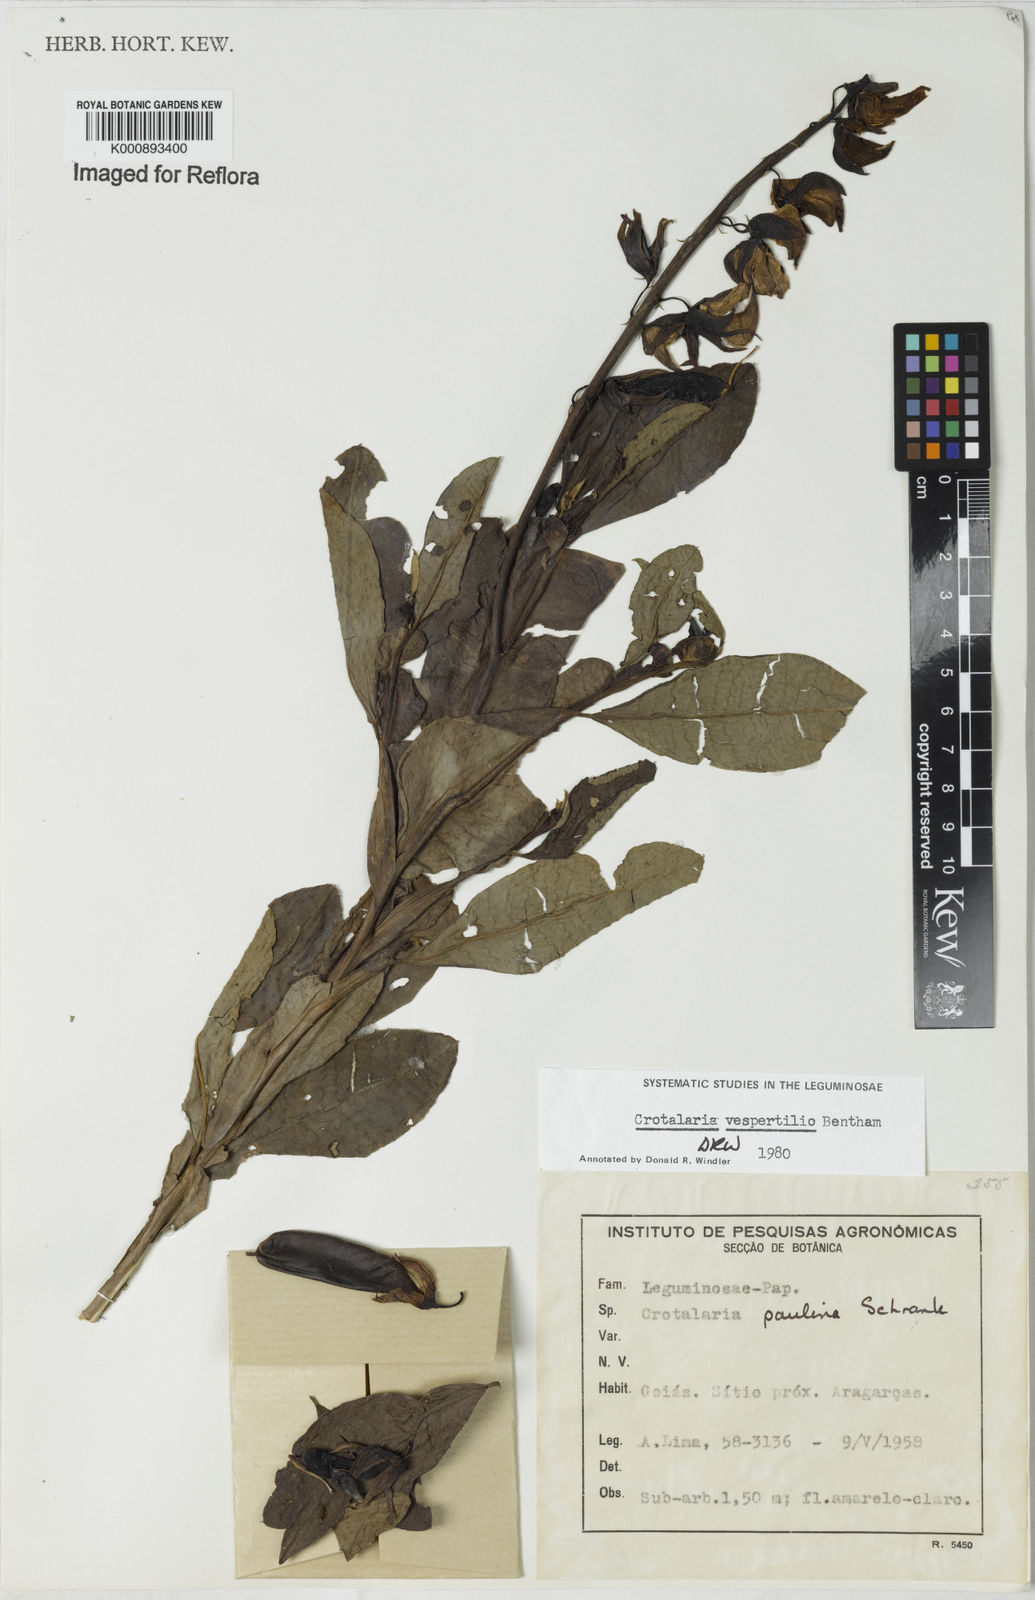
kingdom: Plantae
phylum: Tracheophyta
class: Magnoliopsida
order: Fabales
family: Fabaceae
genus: Crotalaria
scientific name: Crotalaria vespertilio
